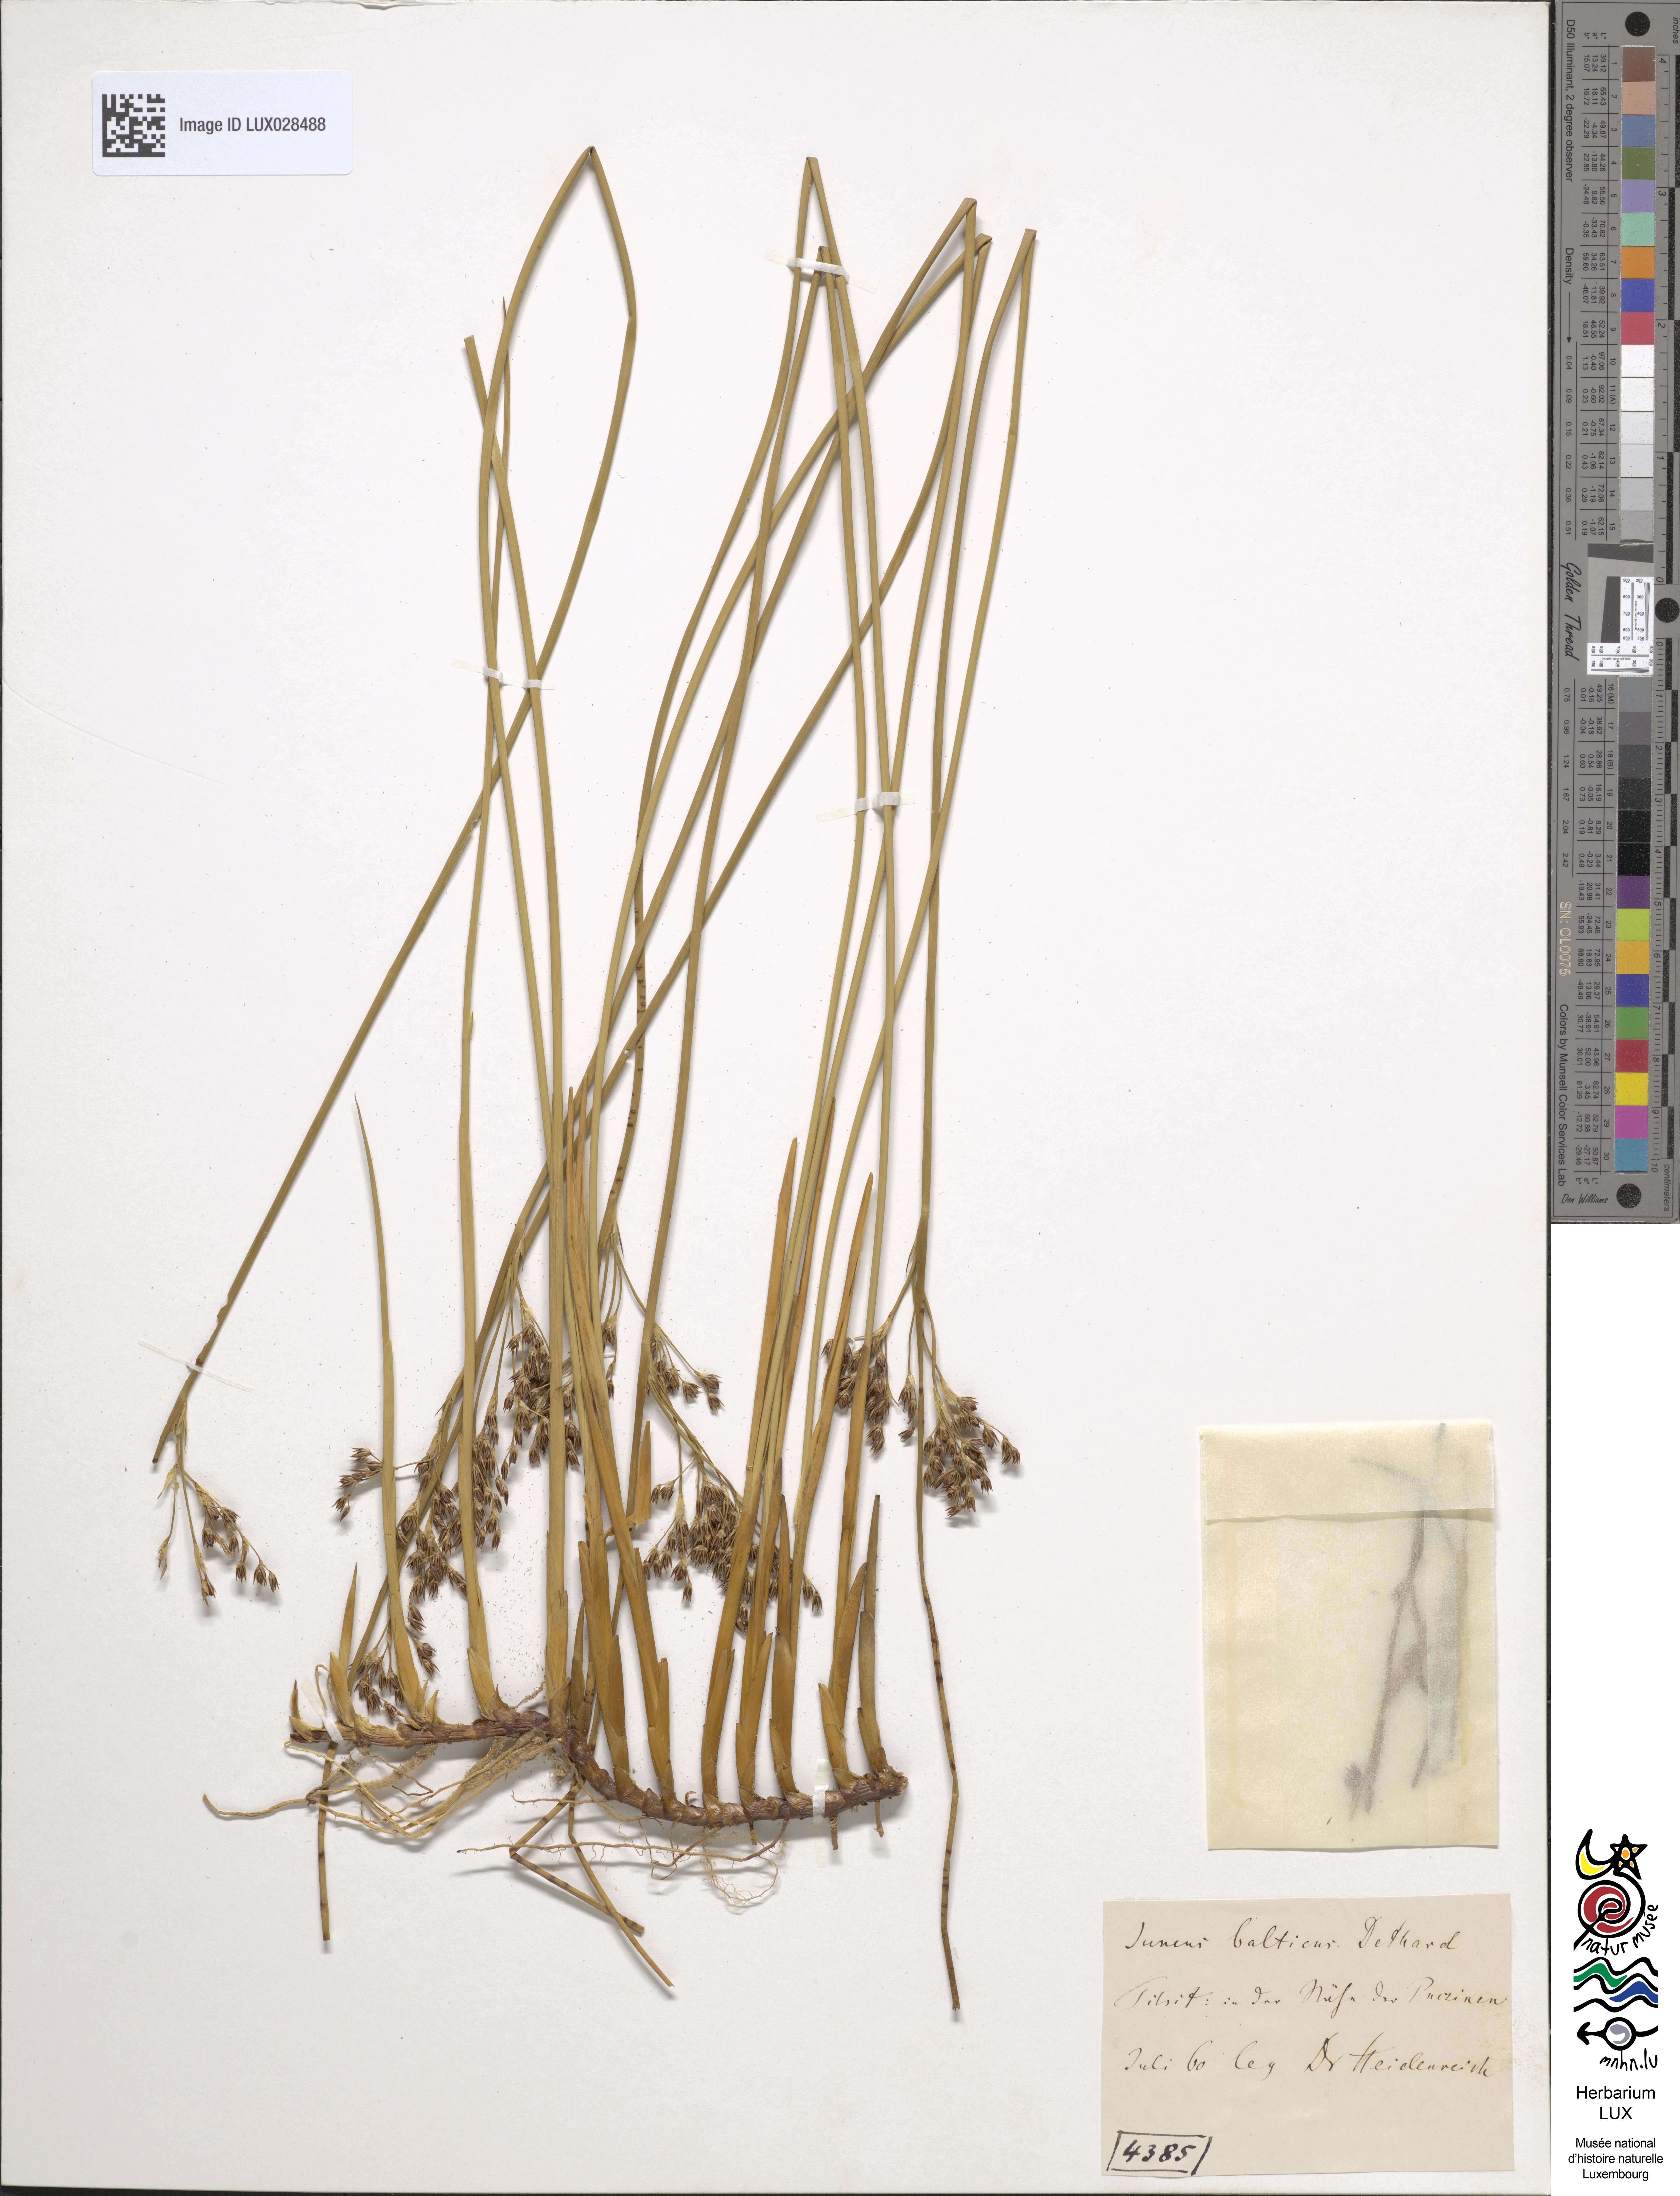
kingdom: Plantae
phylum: Tracheophyta
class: Liliopsida
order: Poales
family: Juncaceae
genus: Juncus
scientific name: Juncus balticus
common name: Baltic rush
